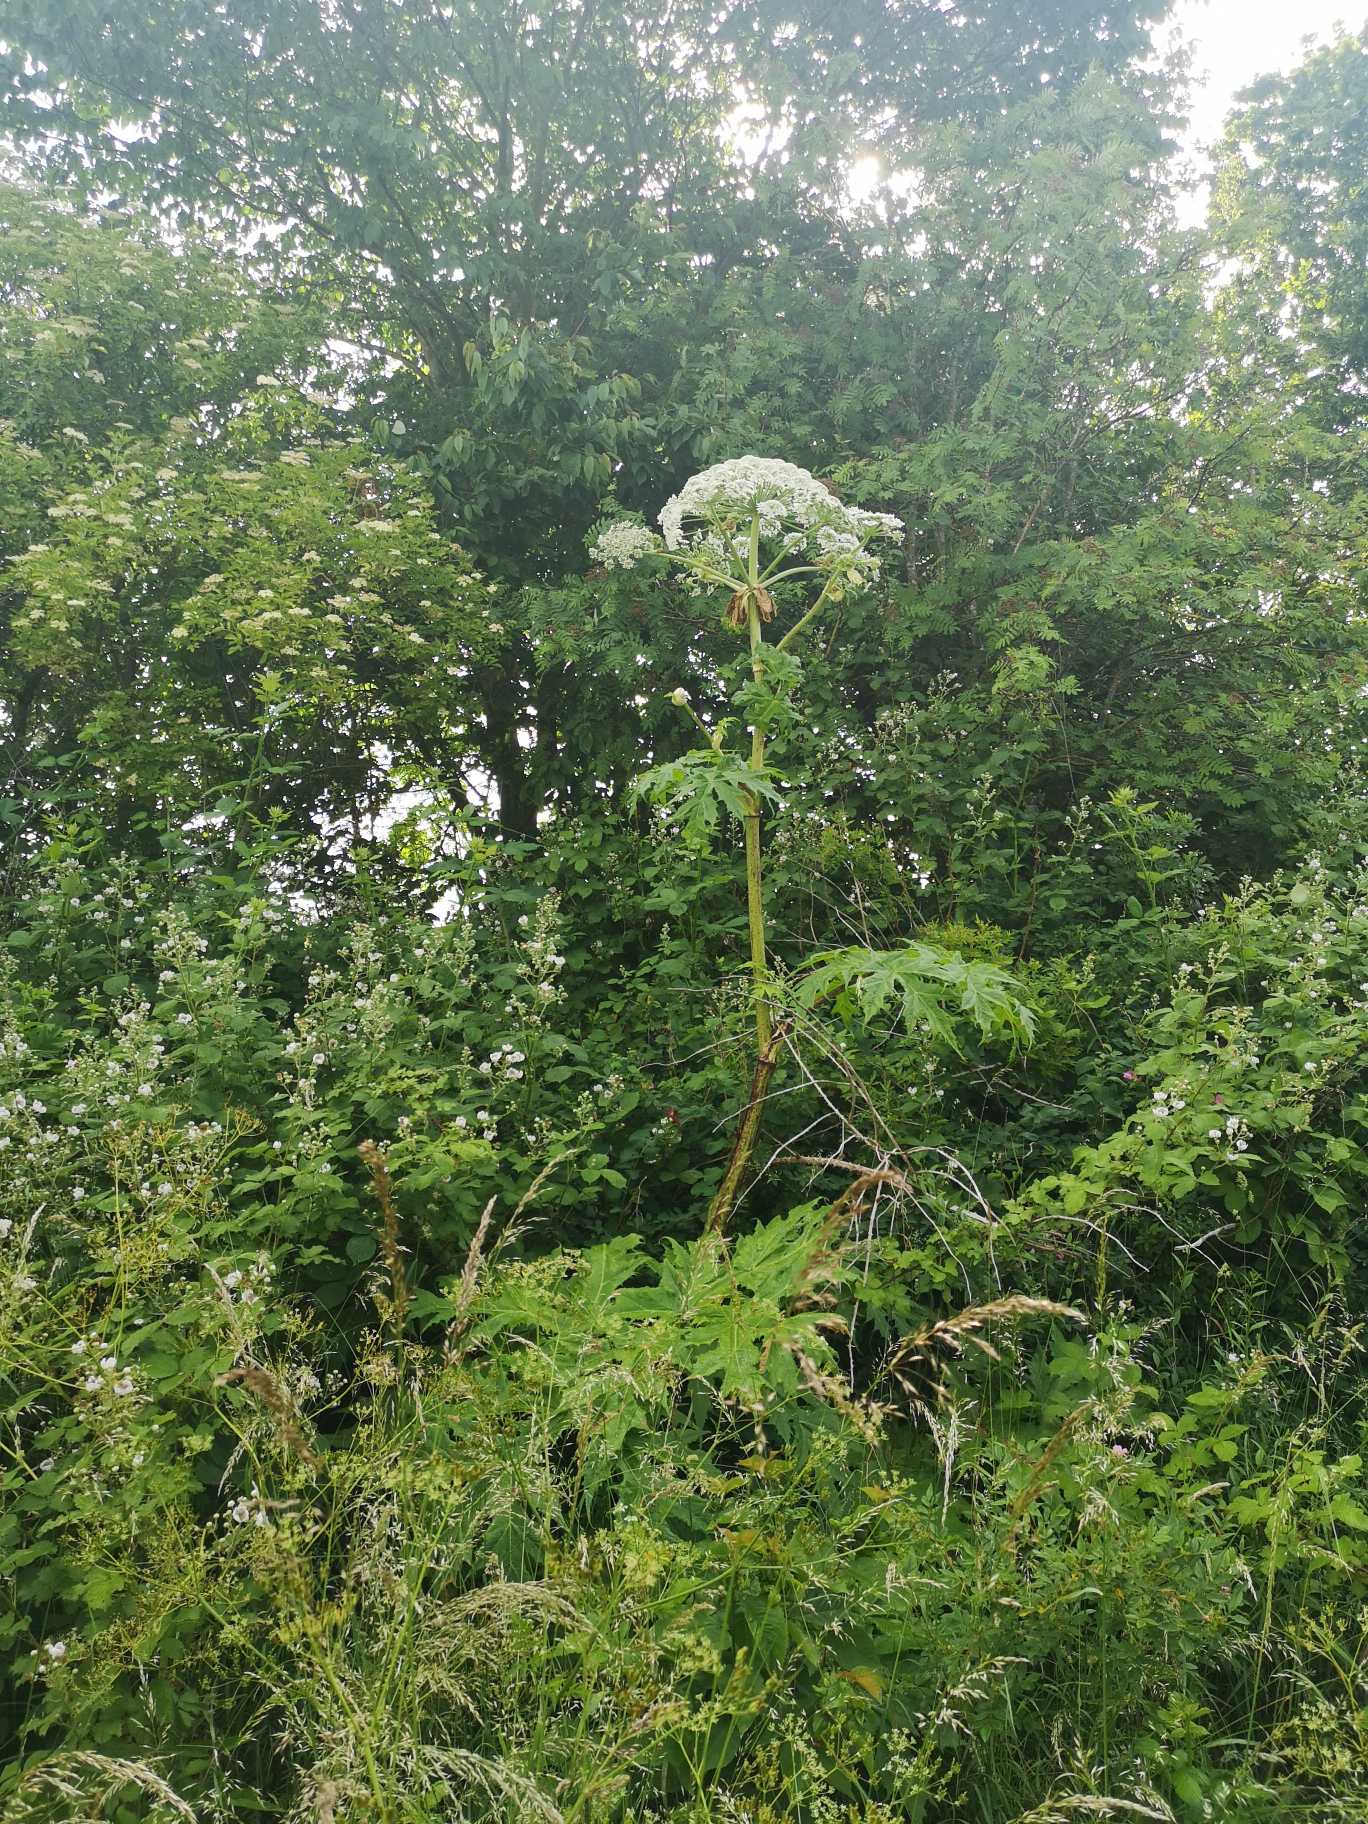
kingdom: Plantae
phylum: Tracheophyta
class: Magnoliopsida
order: Apiales
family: Apiaceae
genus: Heracleum
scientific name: Heracleum mantegazzianum
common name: Kæmpe-bjørneklo
